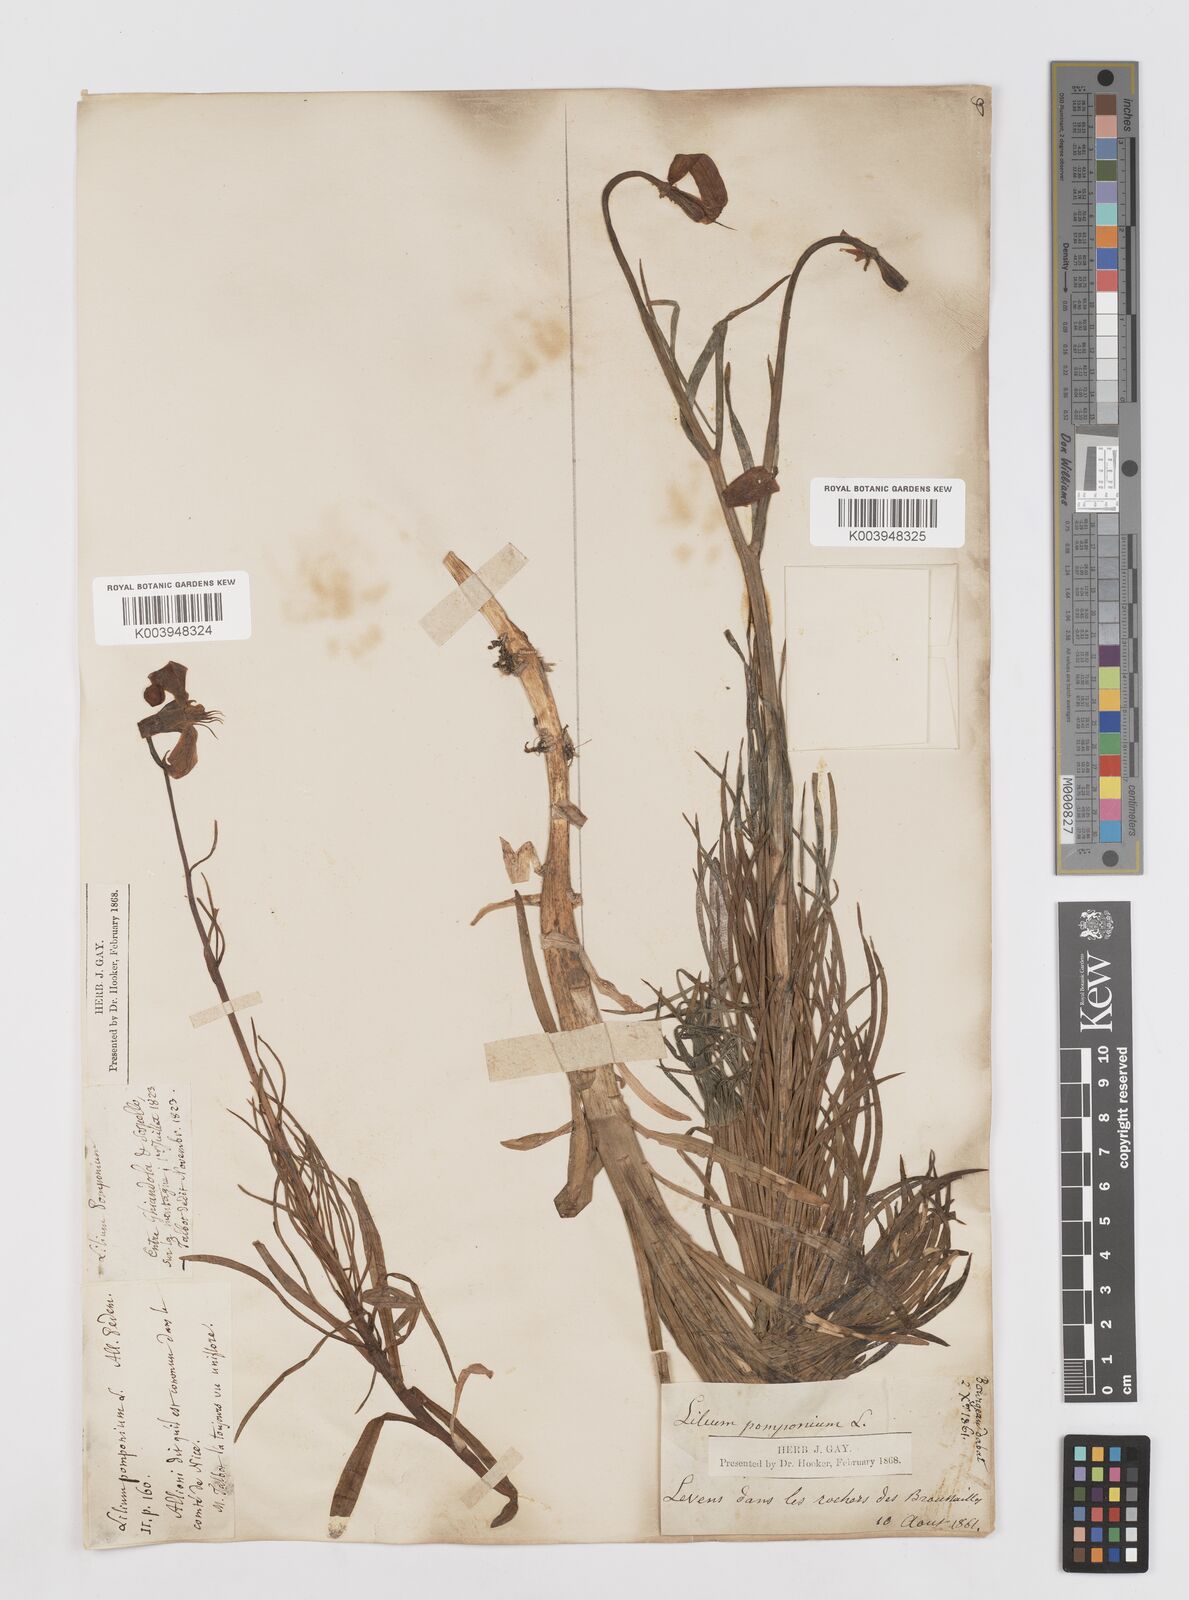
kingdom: Plantae
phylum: Tracheophyta
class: Liliopsida
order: Liliales
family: Liliaceae
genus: Lilium
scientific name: Lilium pomponium
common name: Minor turk's-cap lily
